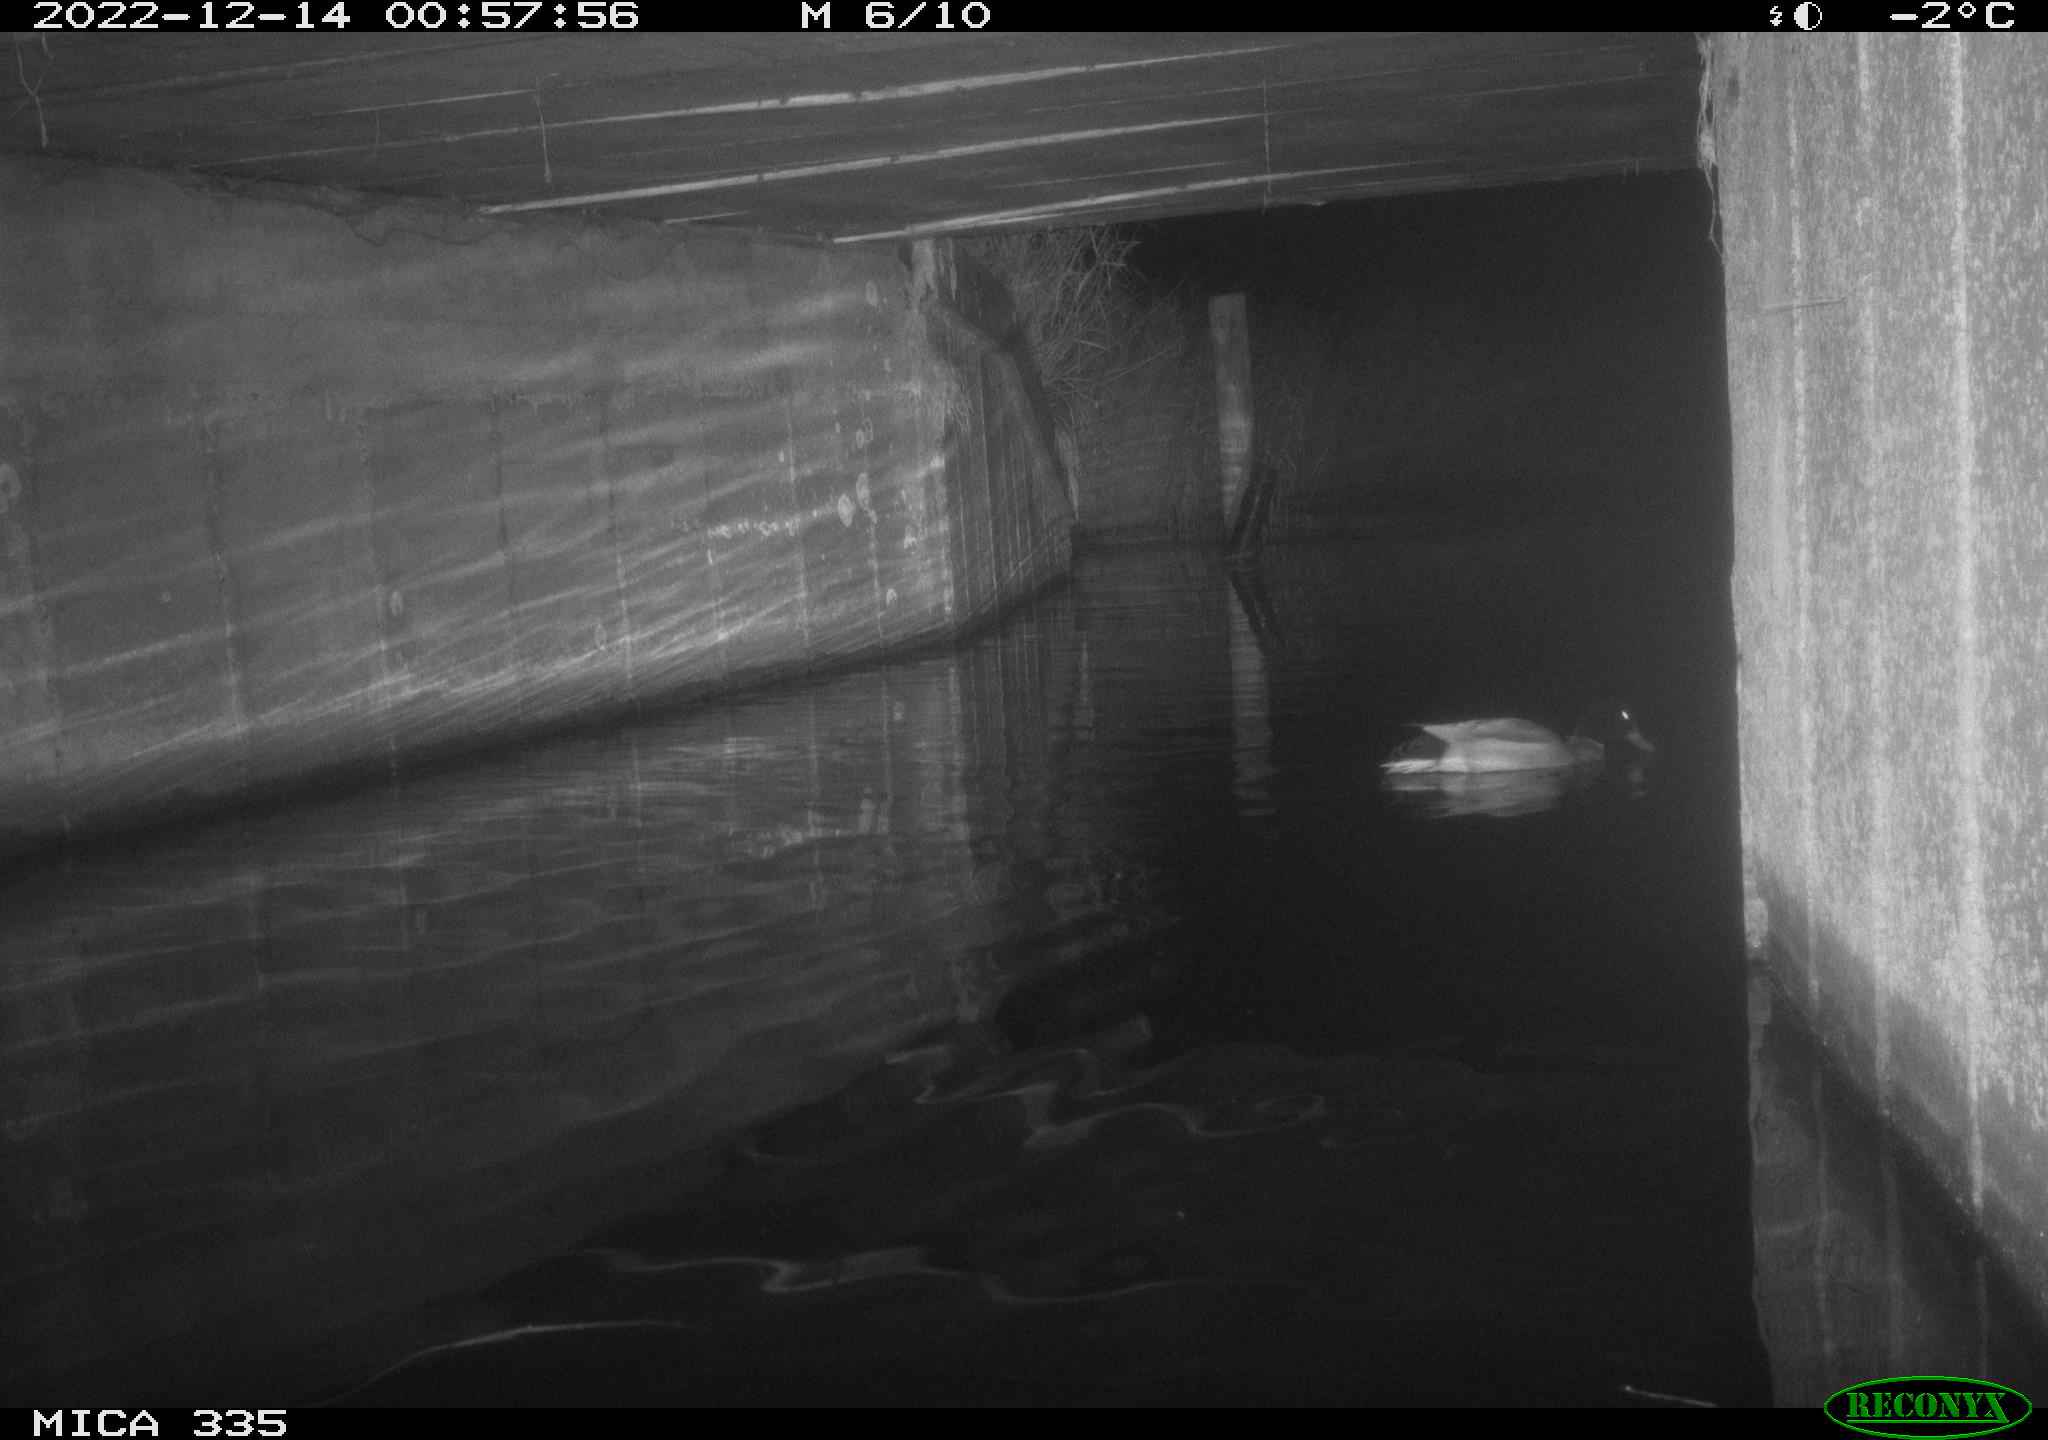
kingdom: Animalia
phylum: Chordata
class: Aves
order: Anseriformes
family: Anatidae
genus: Anas
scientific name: Anas
